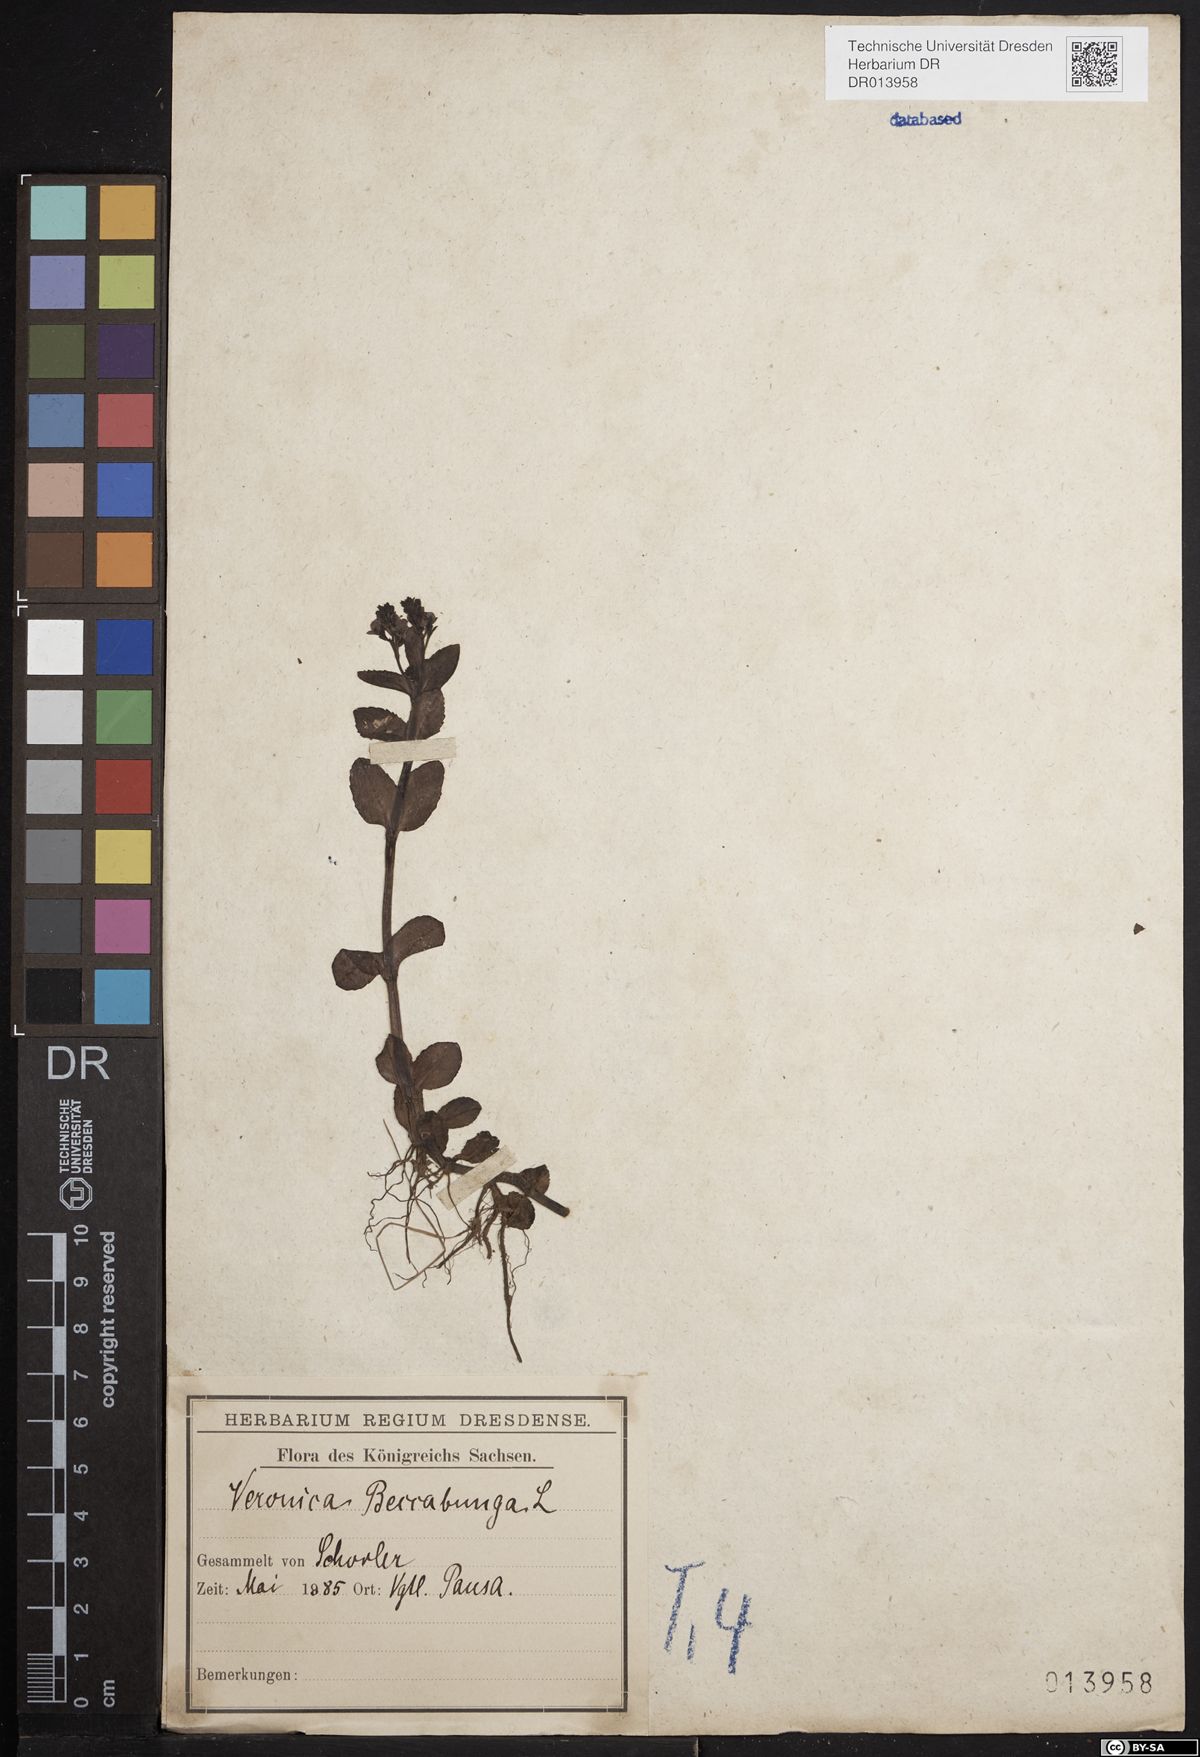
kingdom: Plantae
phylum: Tracheophyta
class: Magnoliopsida
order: Lamiales
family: Plantaginaceae
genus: Veronica
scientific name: Veronica beccabunga
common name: Brooklime
